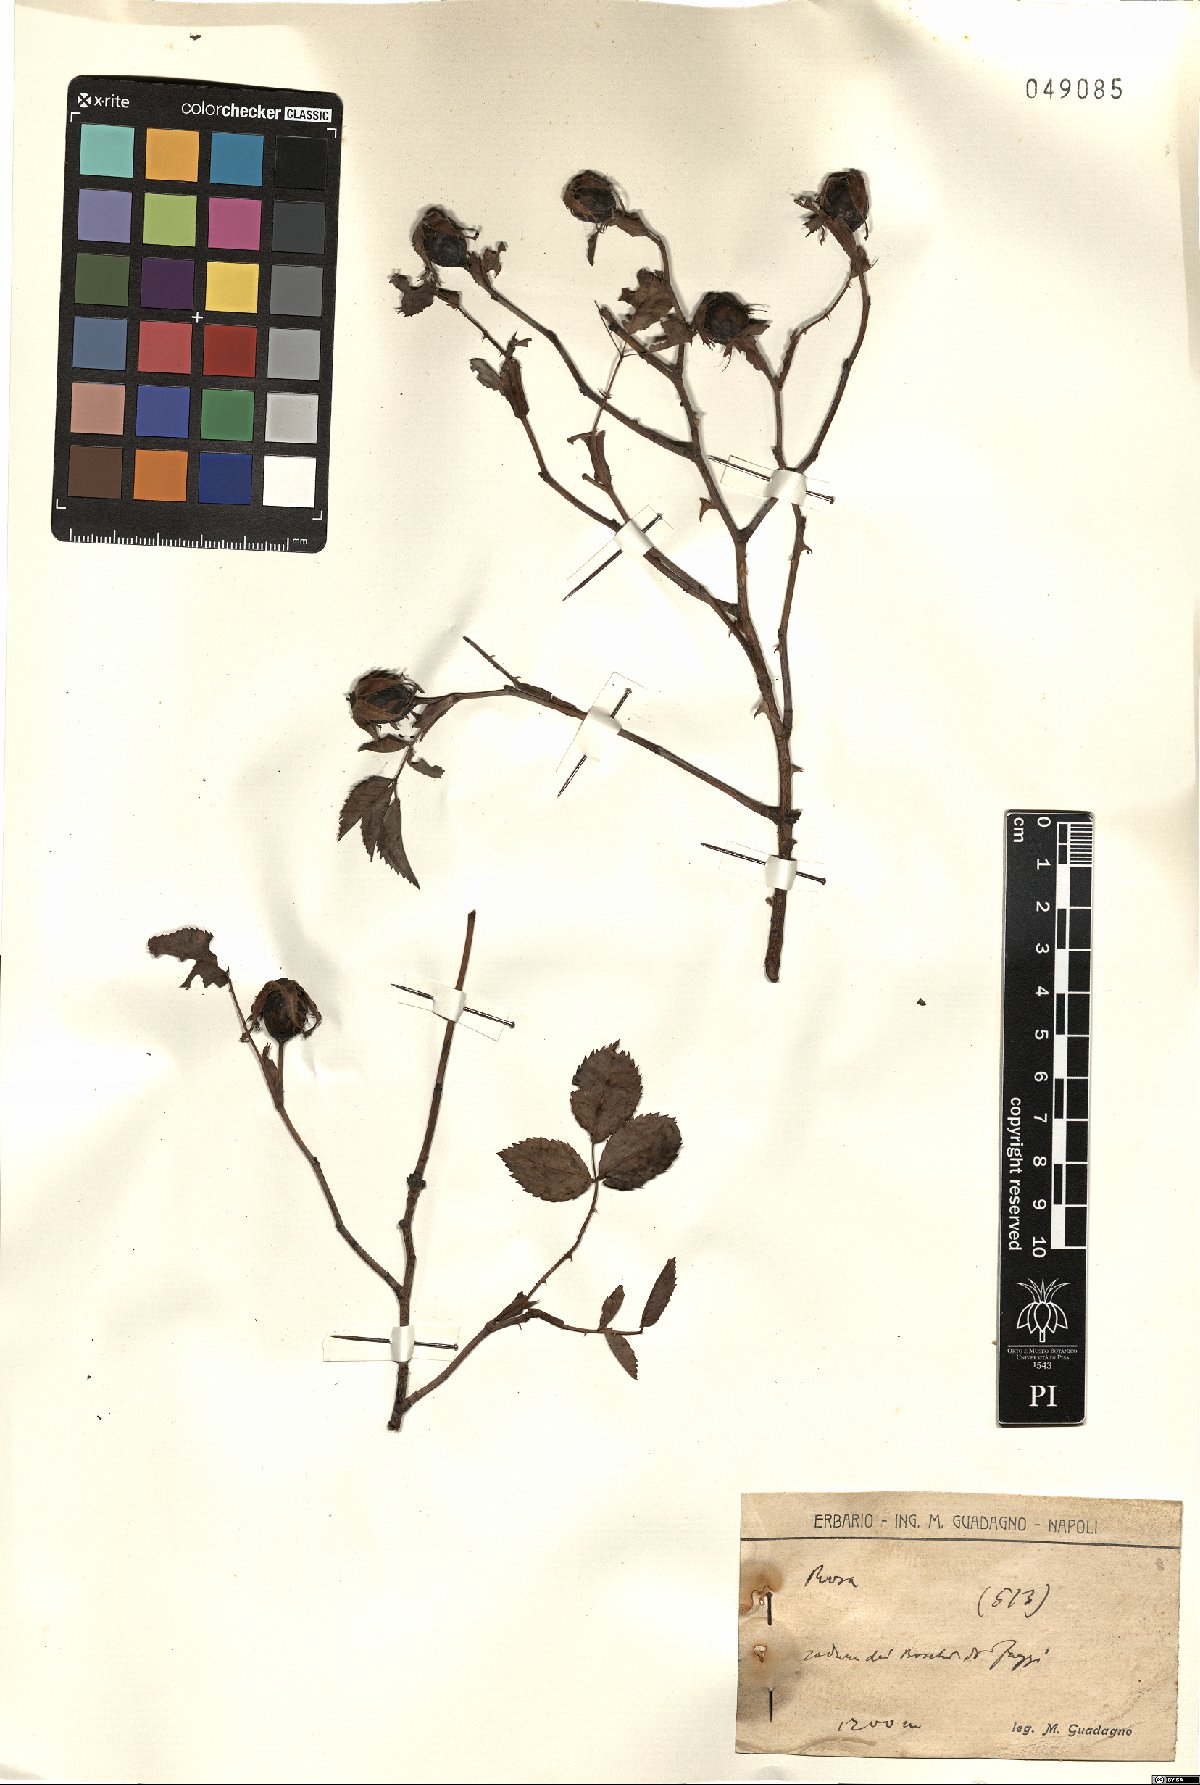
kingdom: Plantae
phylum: Tracheophyta
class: Magnoliopsida
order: Rosales
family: Rosaceae
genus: Rosa
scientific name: Rosa
